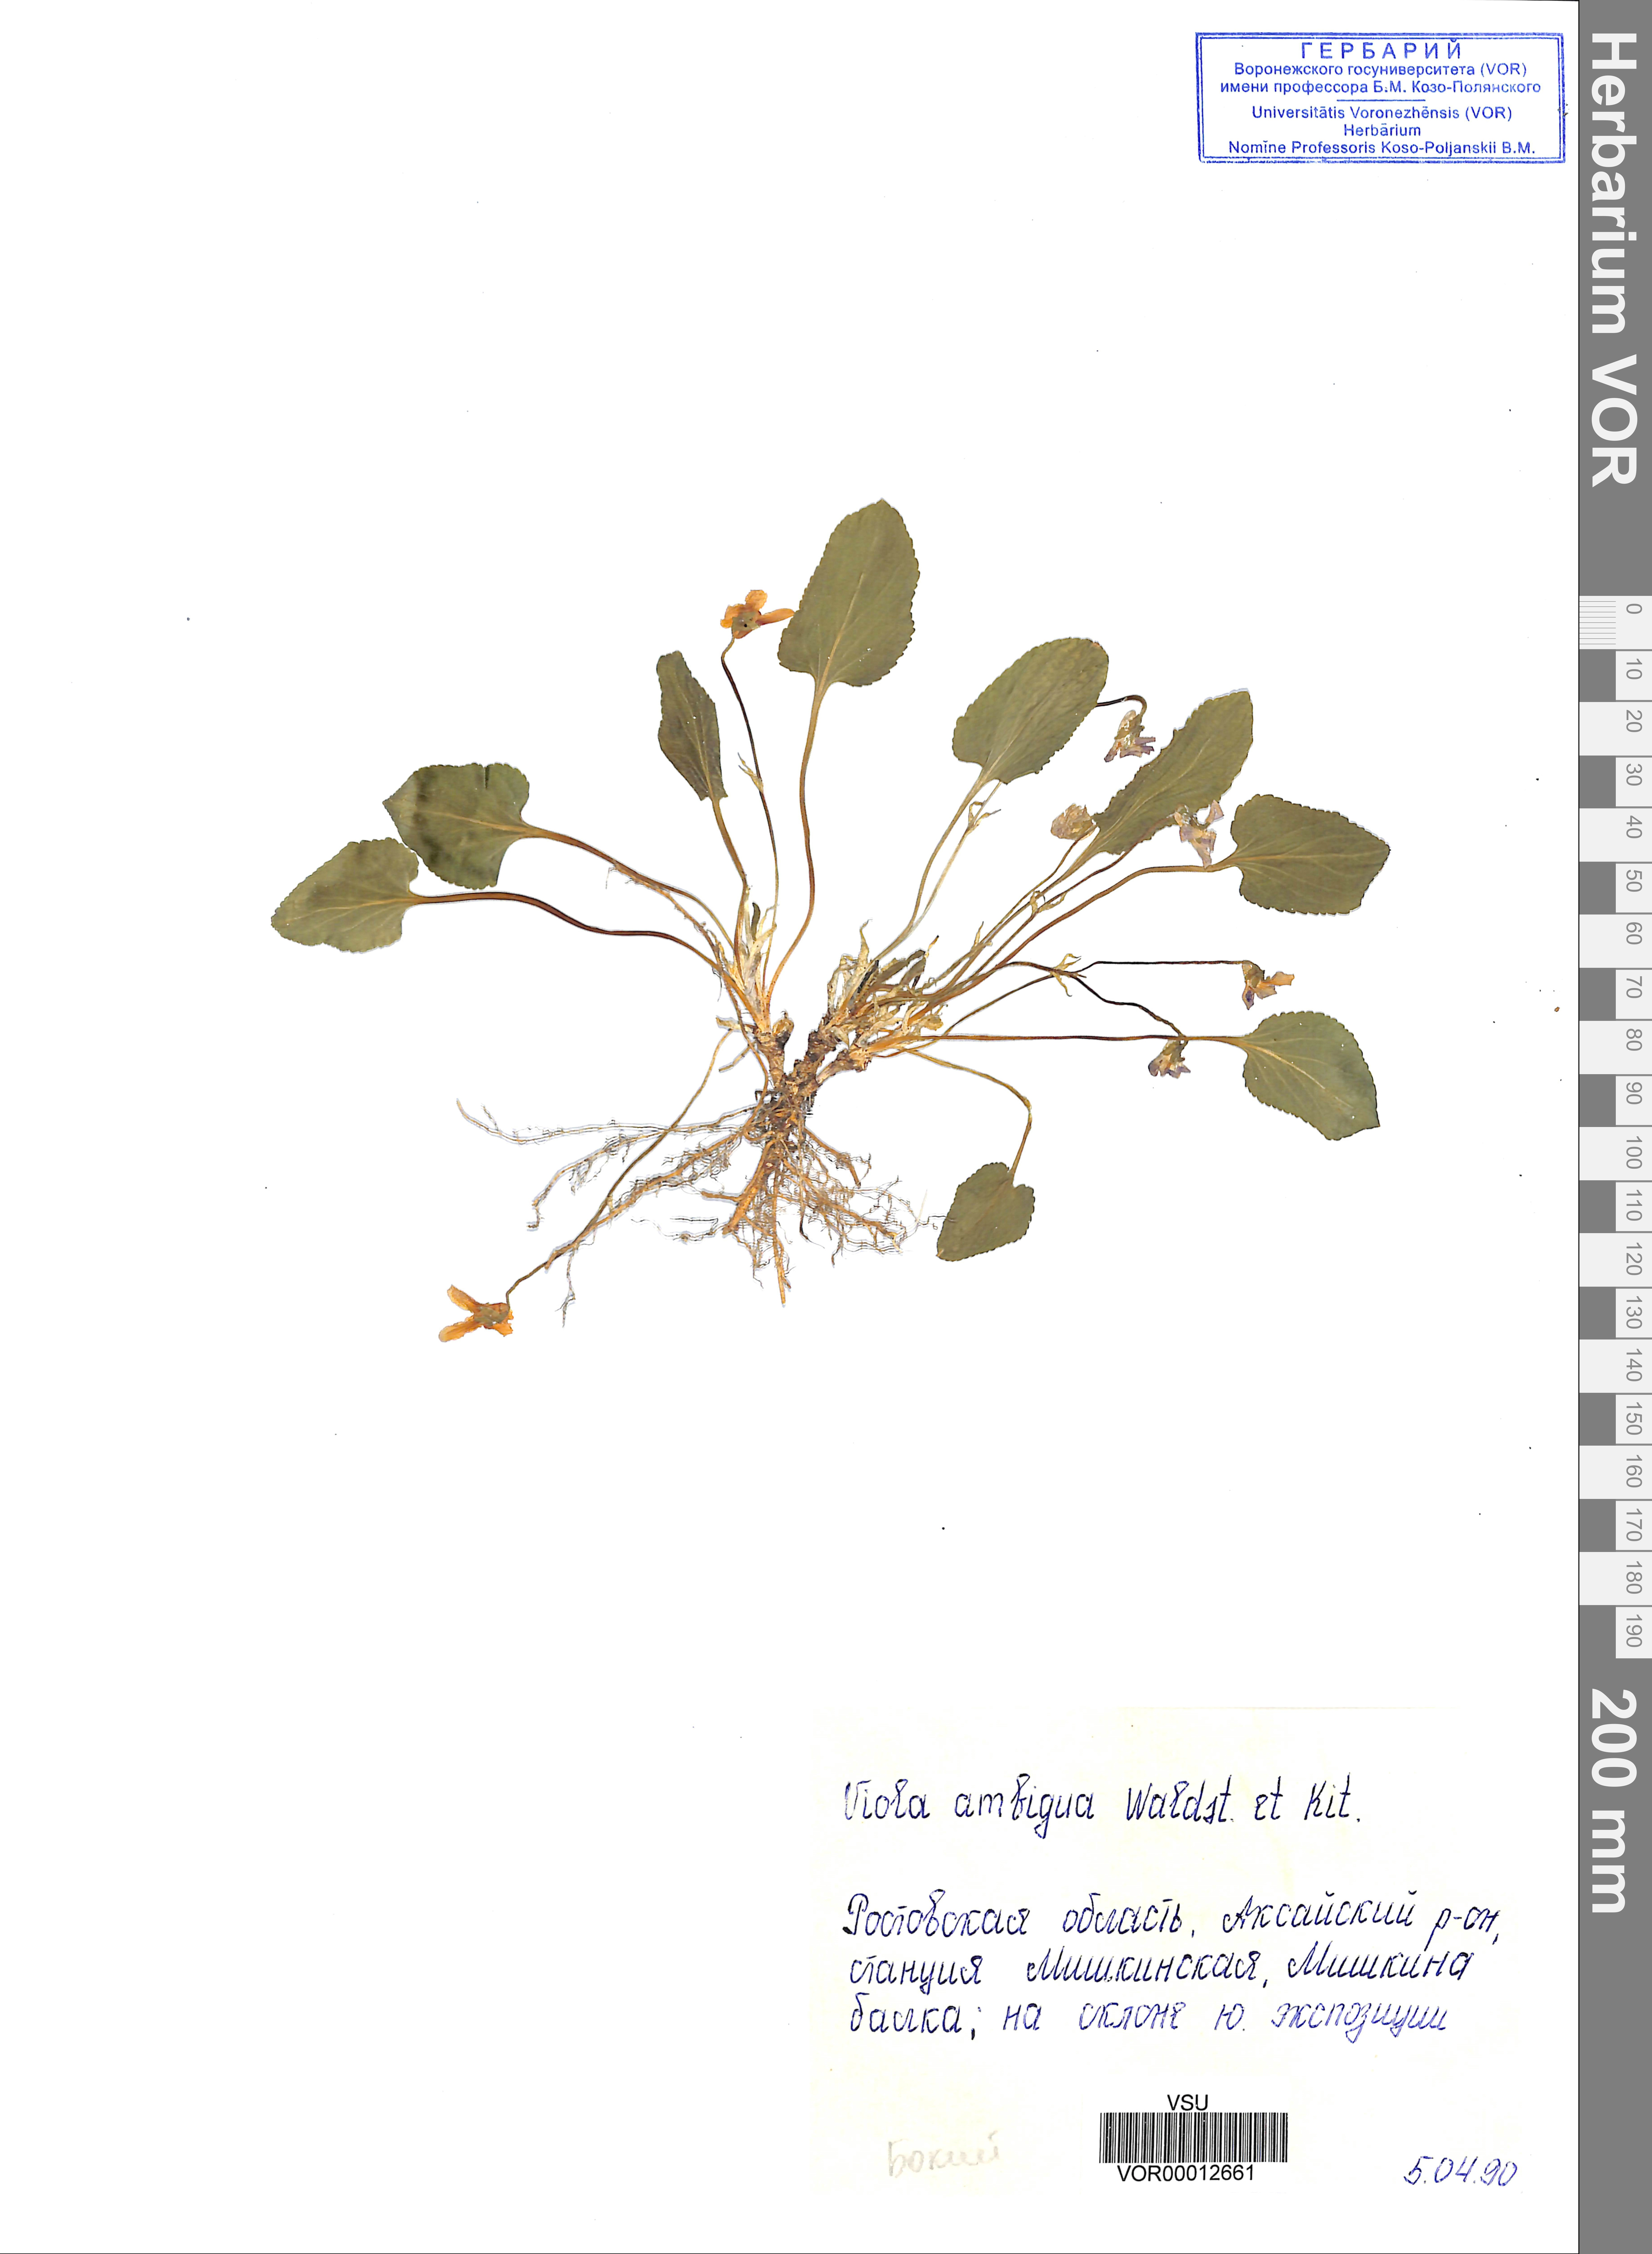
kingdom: Plantae
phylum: Tracheophyta
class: Magnoliopsida
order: Malpighiales
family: Violaceae
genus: Viola
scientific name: Viola ambigua
